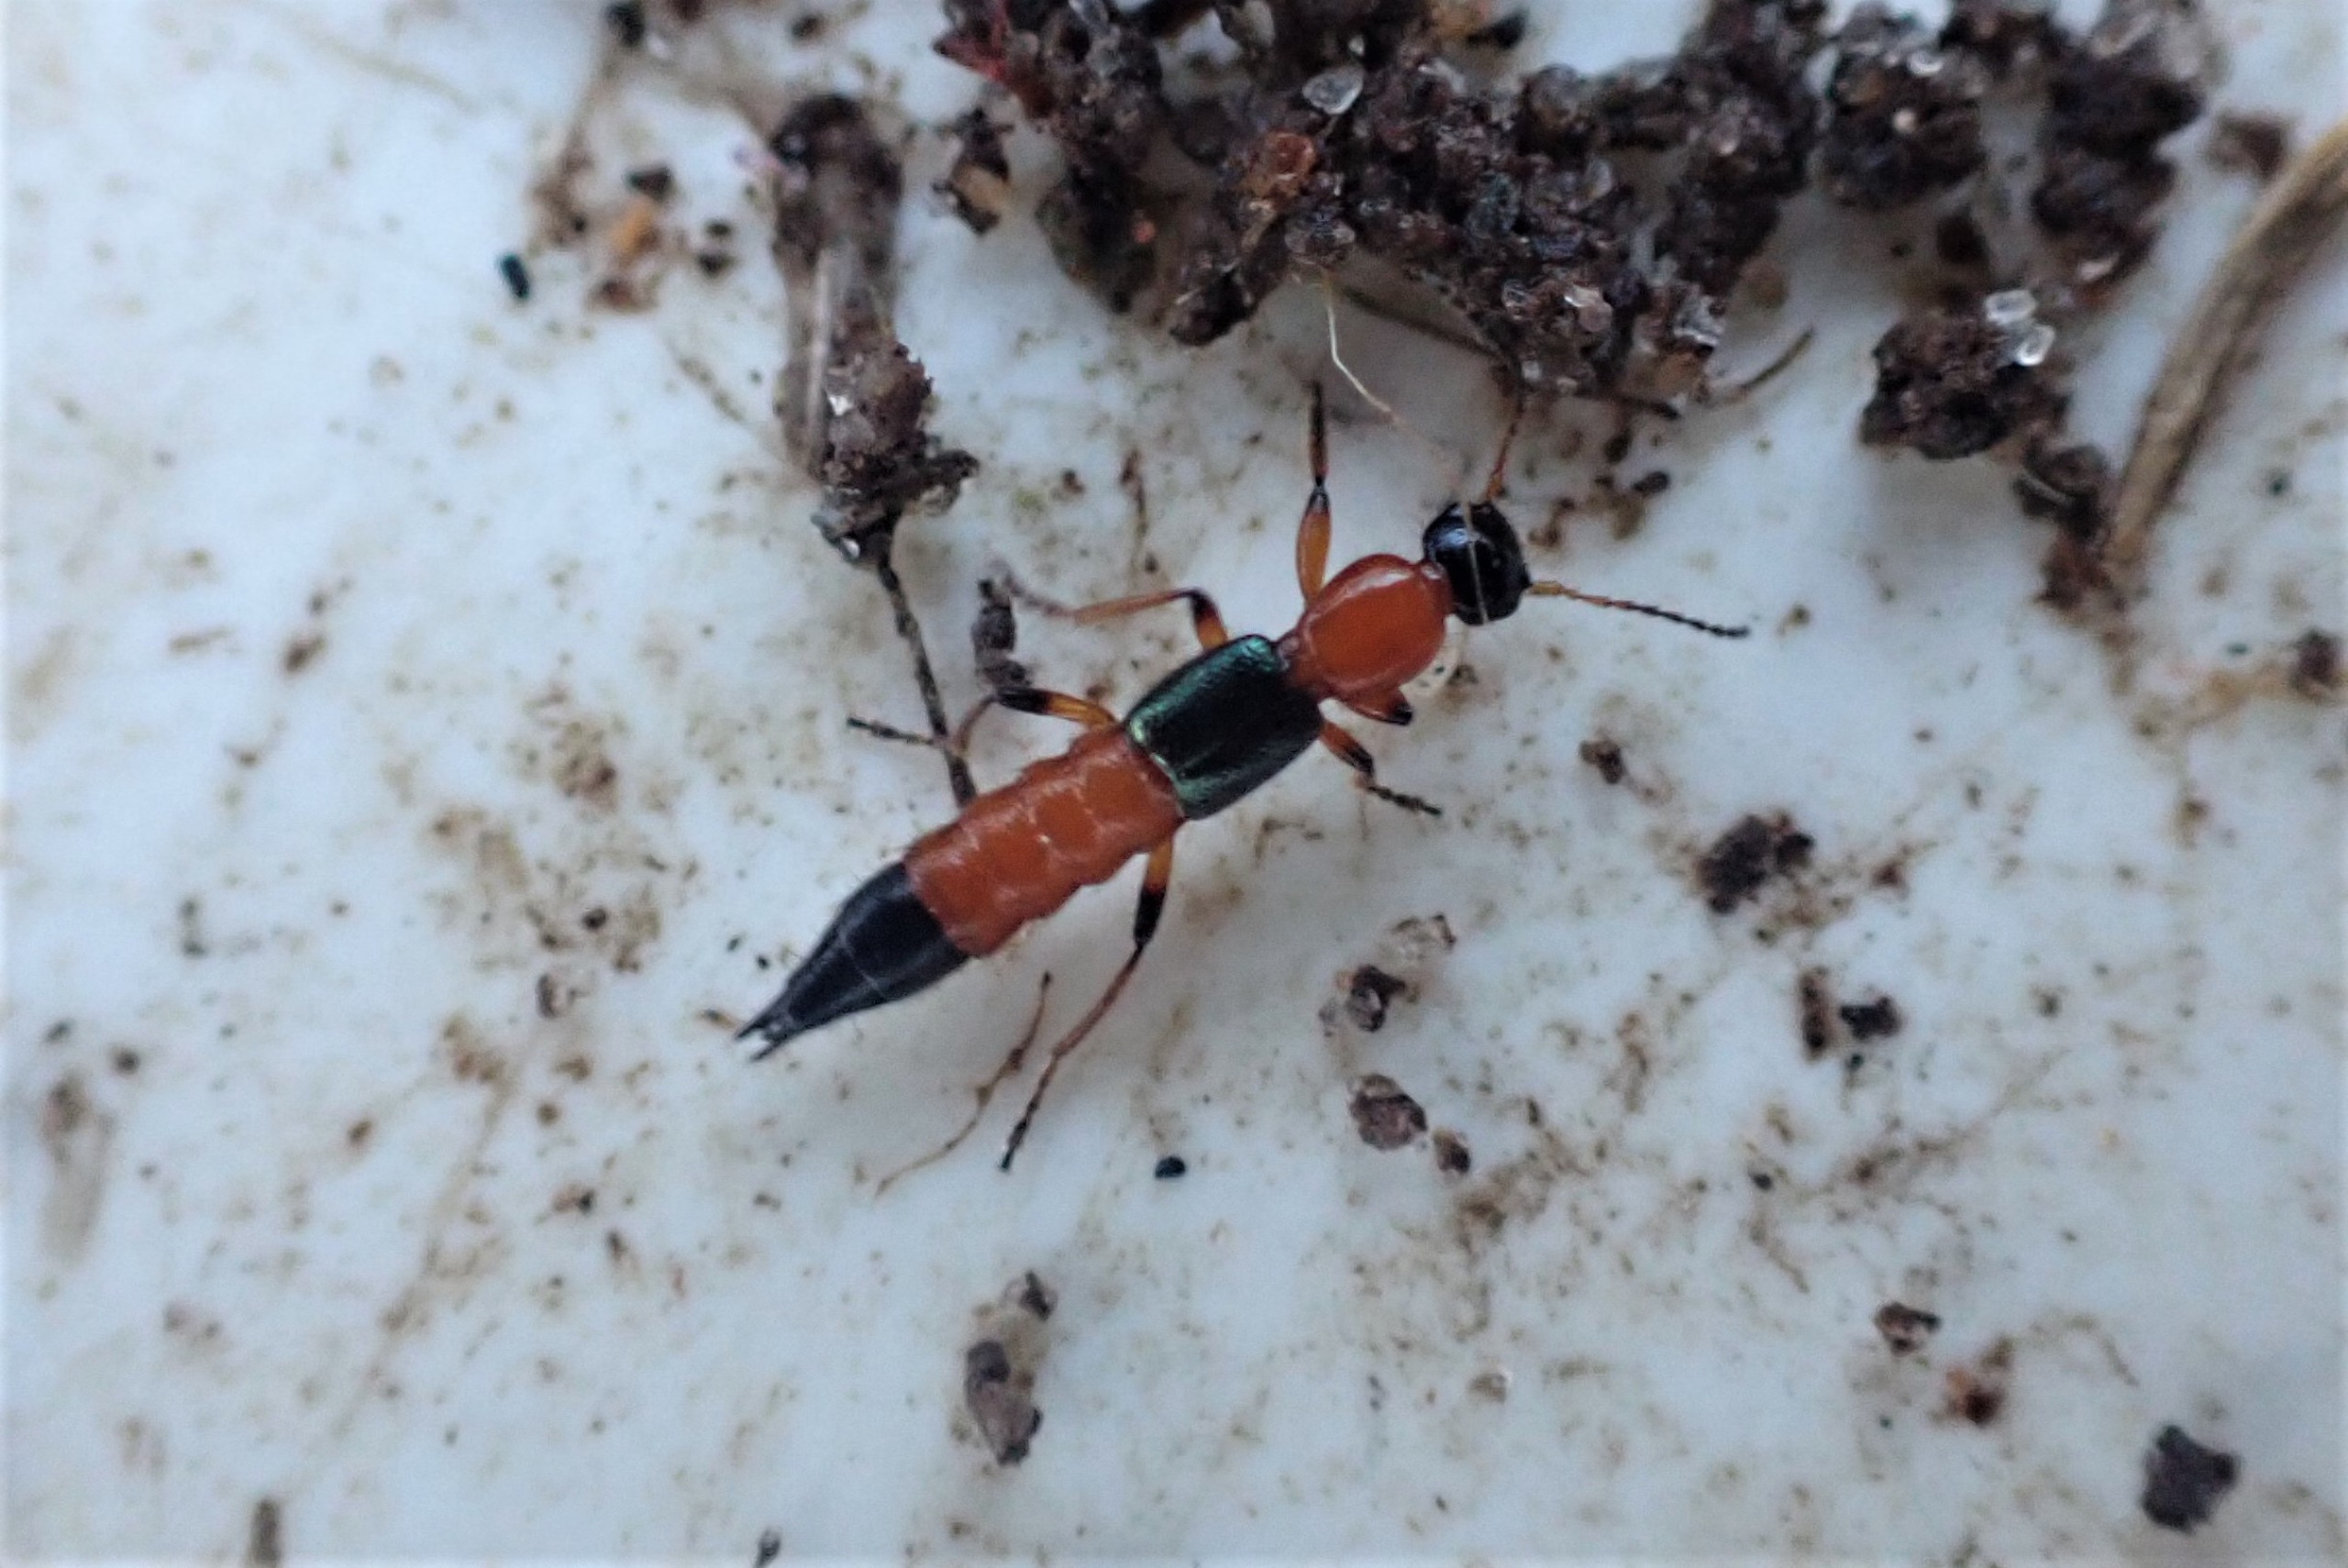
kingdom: Animalia
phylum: Arthropoda
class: Insecta
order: Coleoptera
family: Staphylinidae
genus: Paederus
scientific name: Paederus riparius
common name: Giftig rovbille
